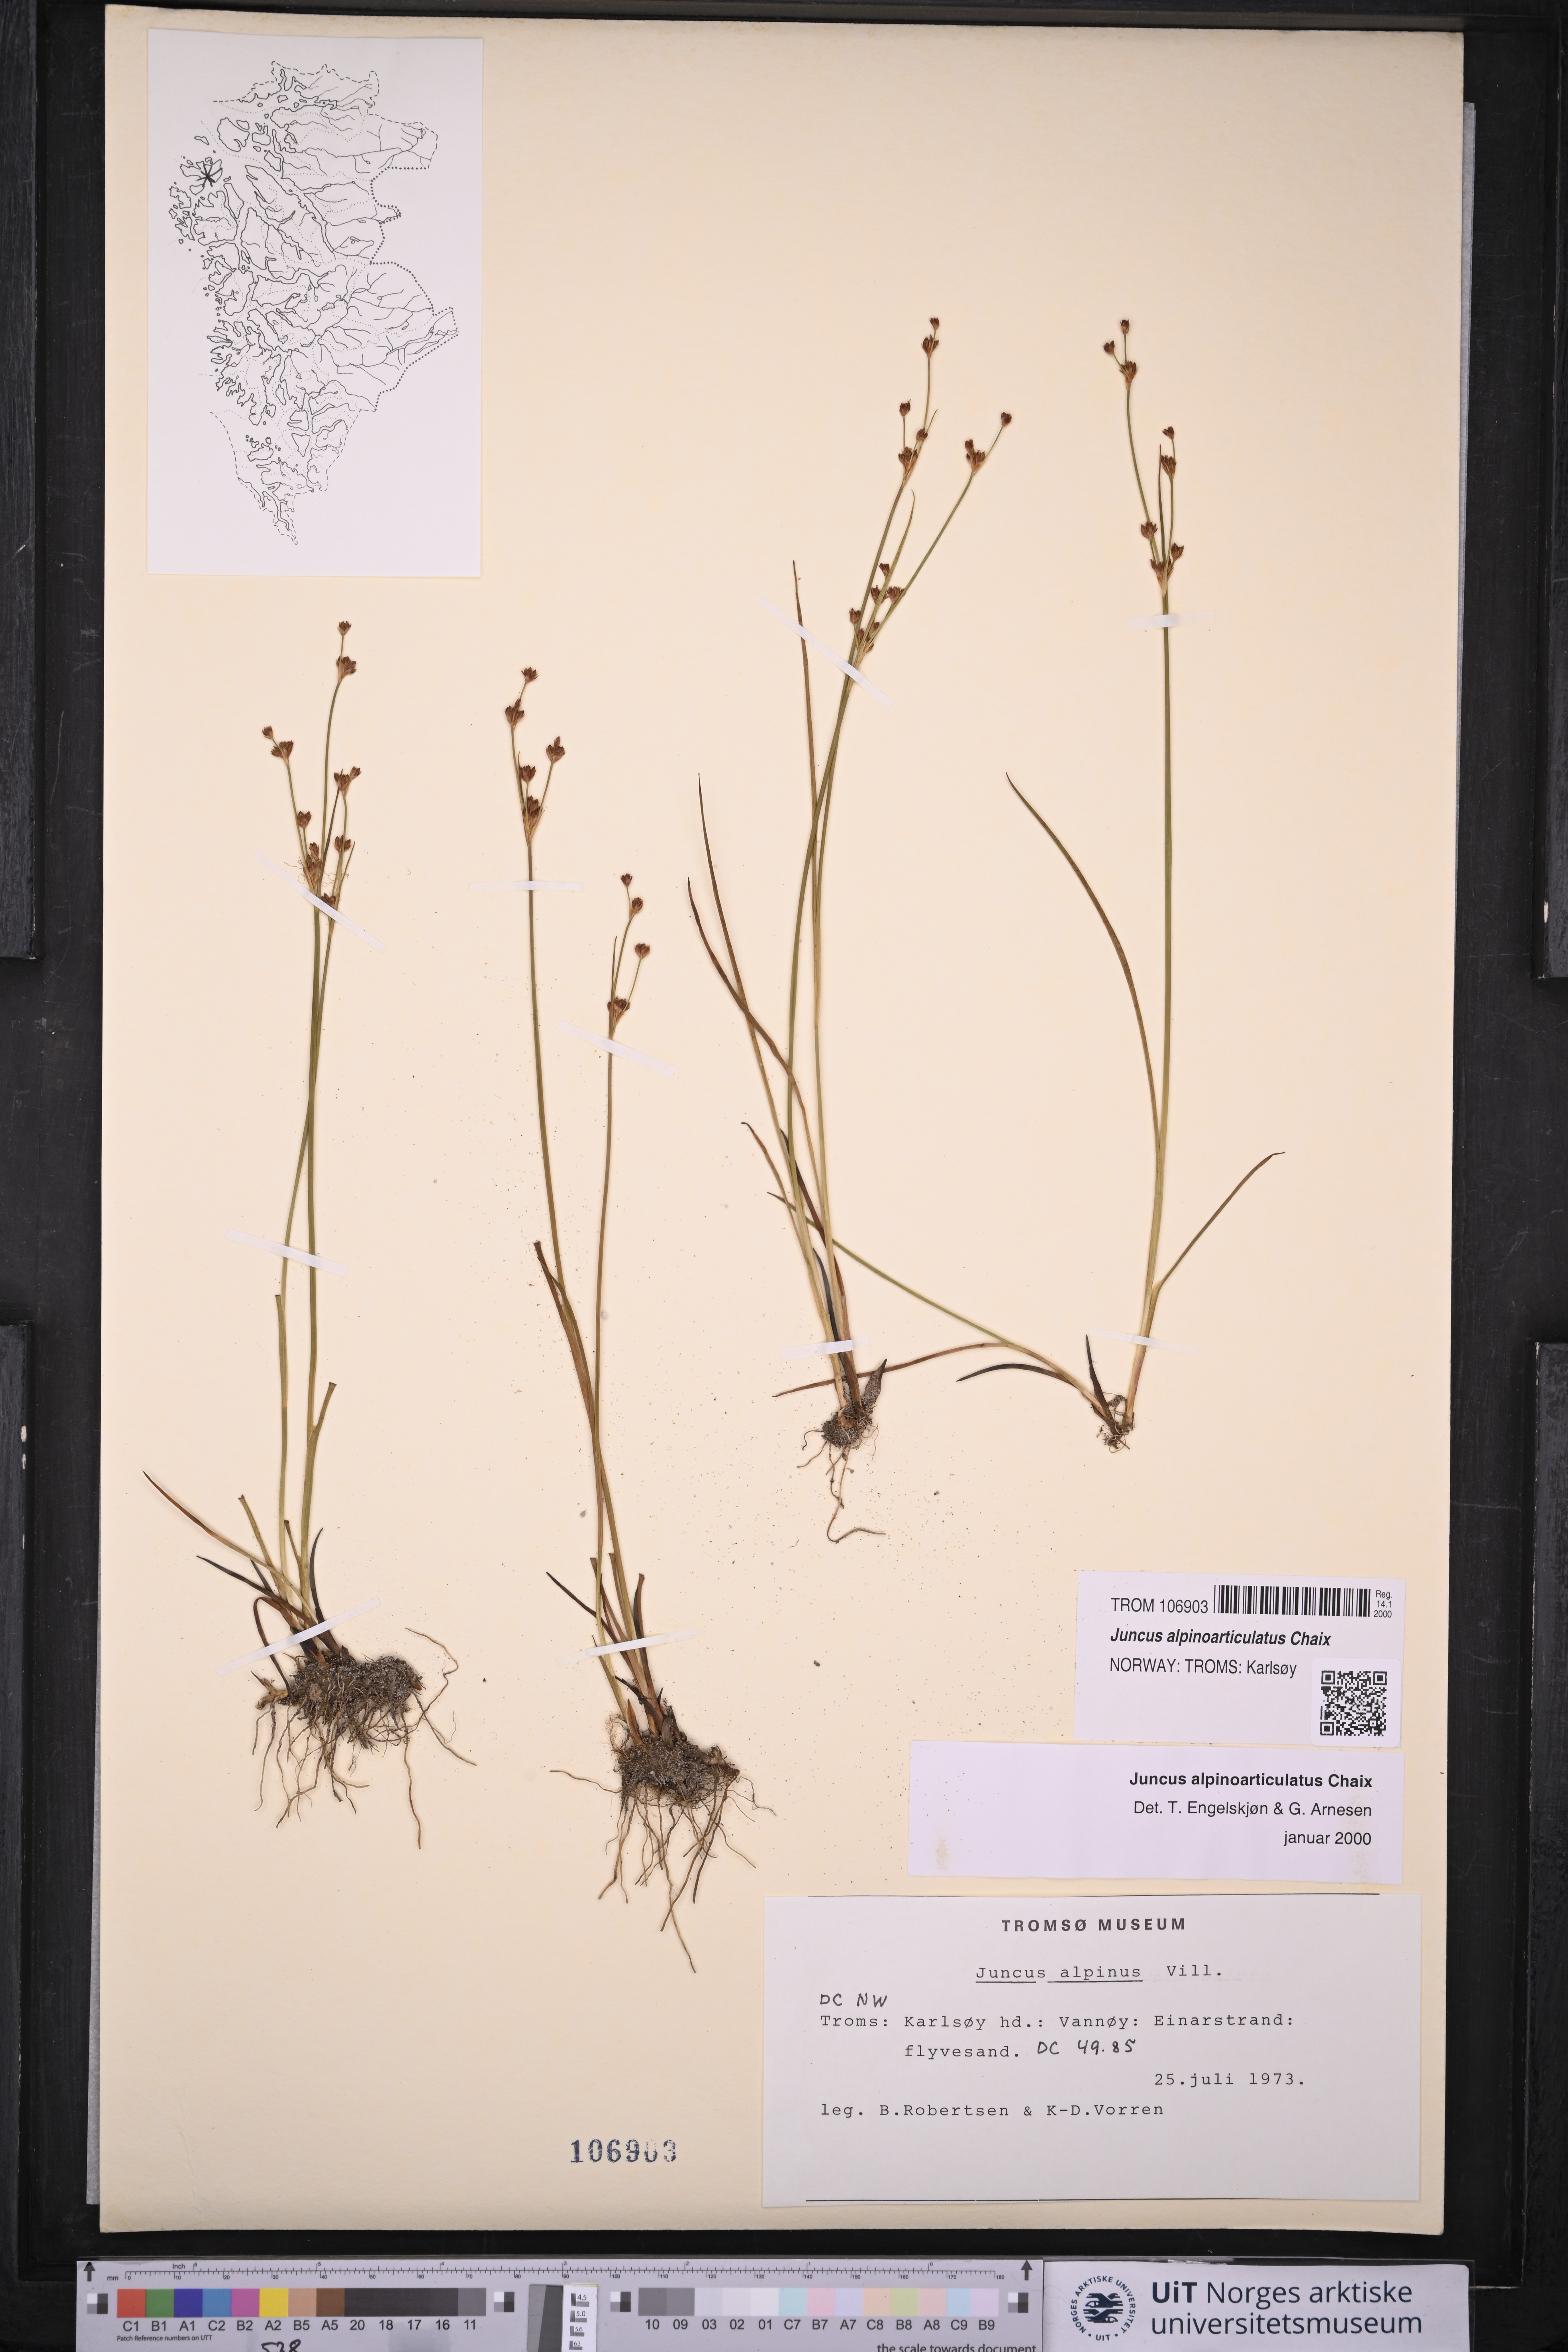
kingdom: Plantae
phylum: Tracheophyta
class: Liliopsida
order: Poales
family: Juncaceae
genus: Juncus
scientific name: Juncus alpinoarticulatus
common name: Alpine rush
